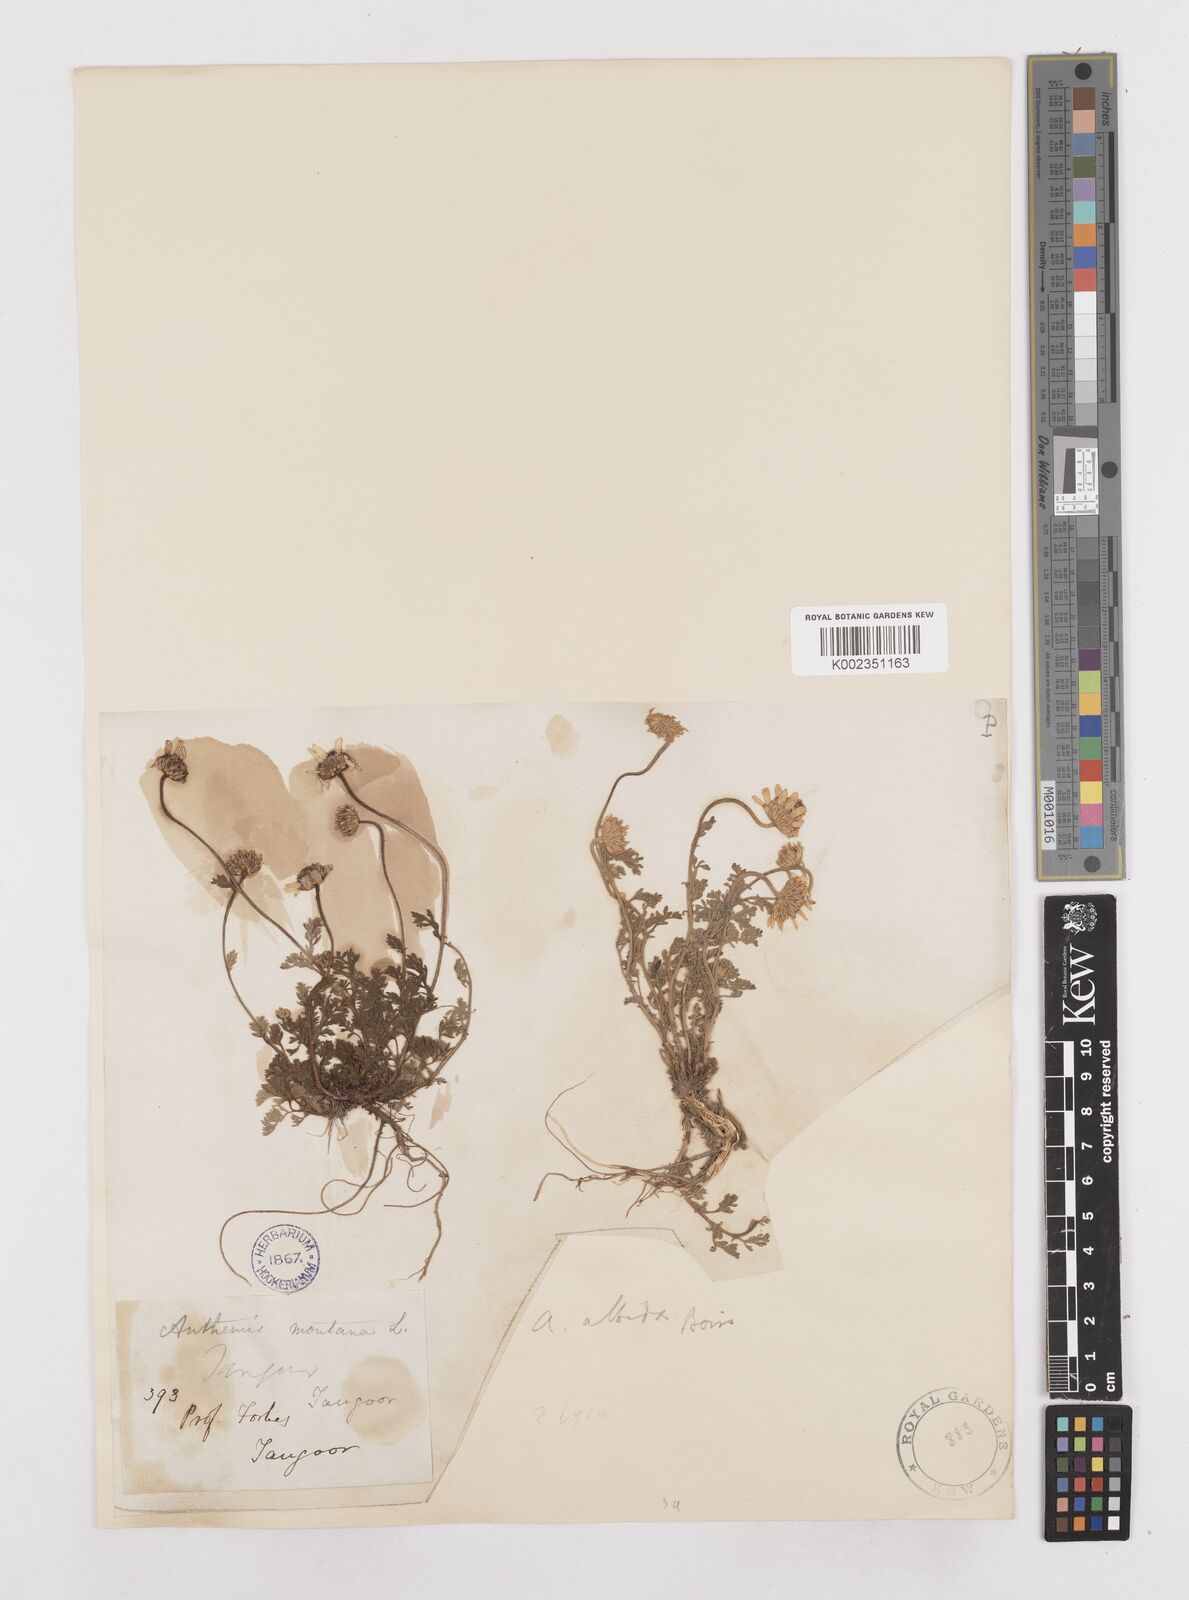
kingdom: Plantae
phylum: Tracheophyta
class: Magnoliopsida
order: Asterales
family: Asteraceae
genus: Anthemis
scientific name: Anthemis cretica
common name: Mountain dog-daisy
